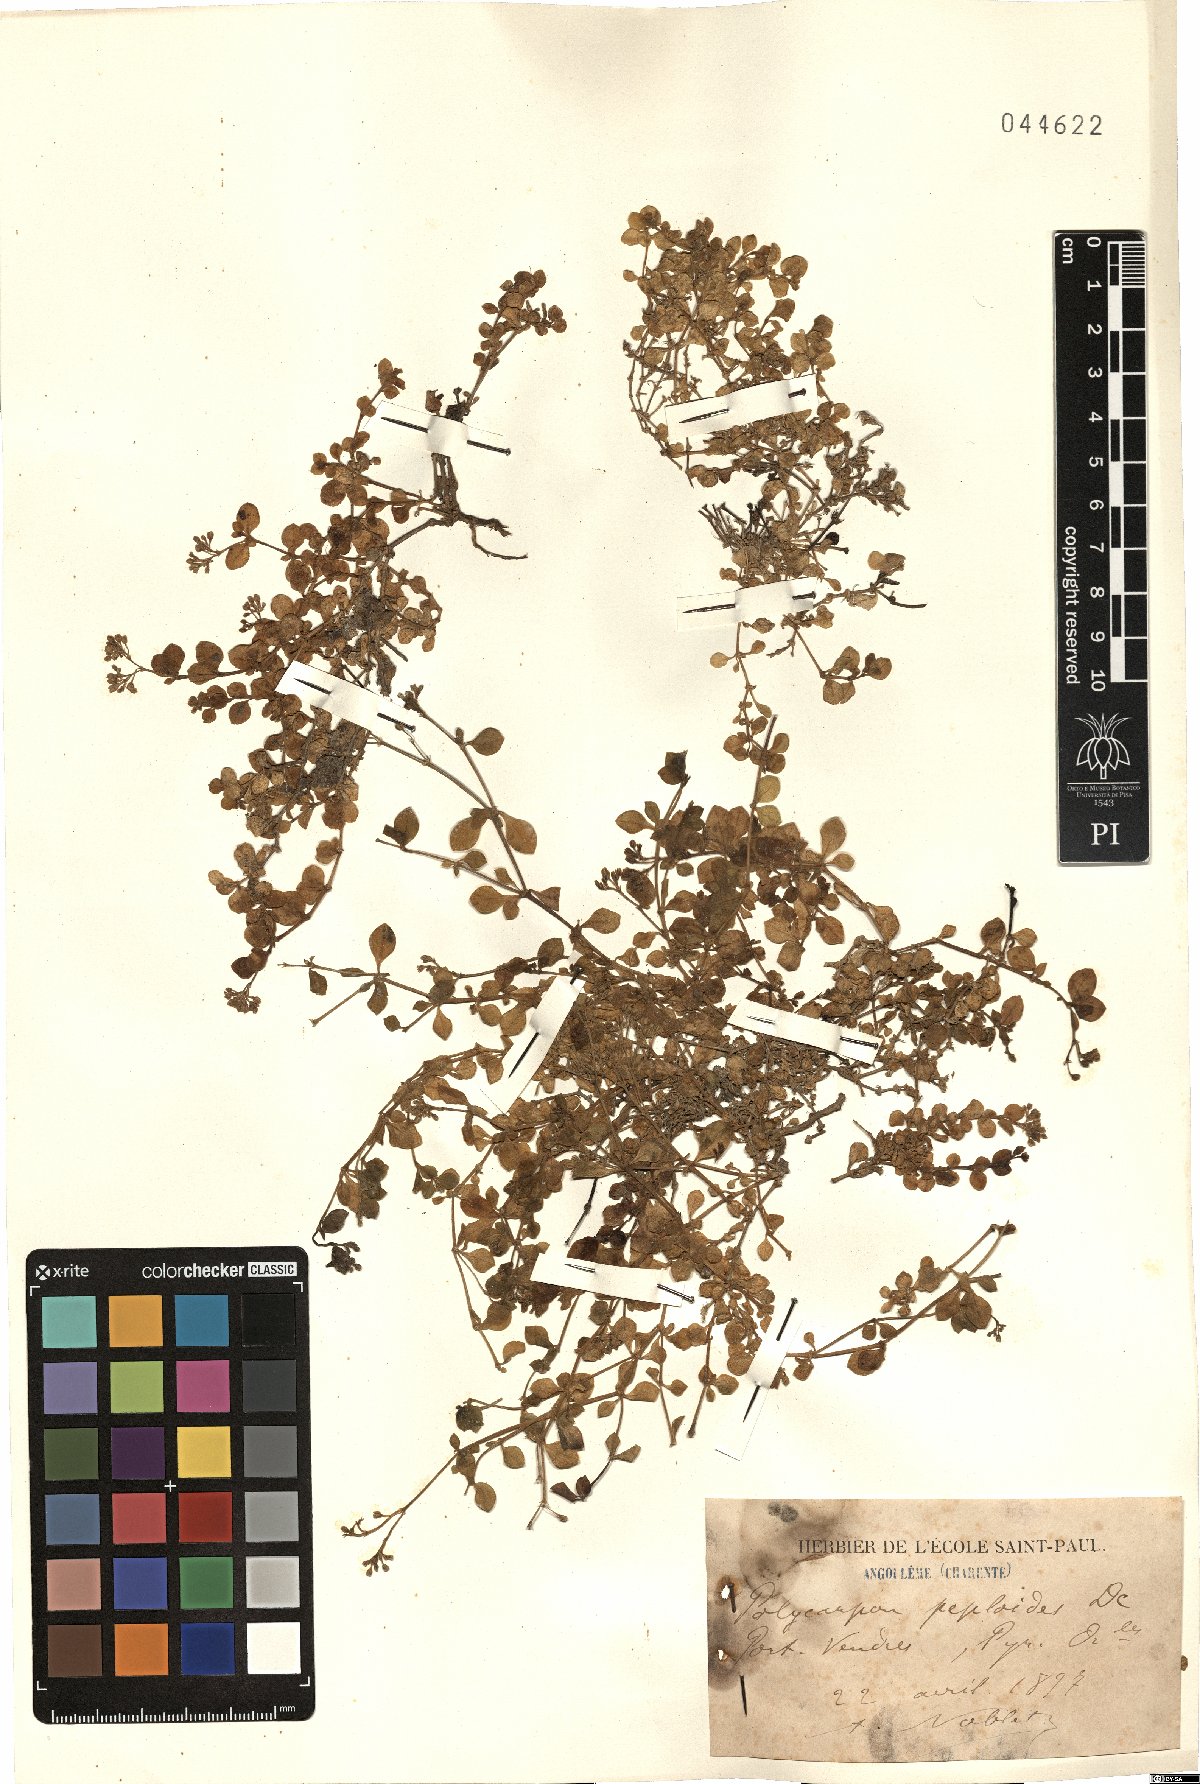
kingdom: Plantae
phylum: Tracheophyta
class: Magnoliopsida
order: Caryophyllales
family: Caryophyllaceae
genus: Polycarpon
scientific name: Polycarpon polycarpoides
